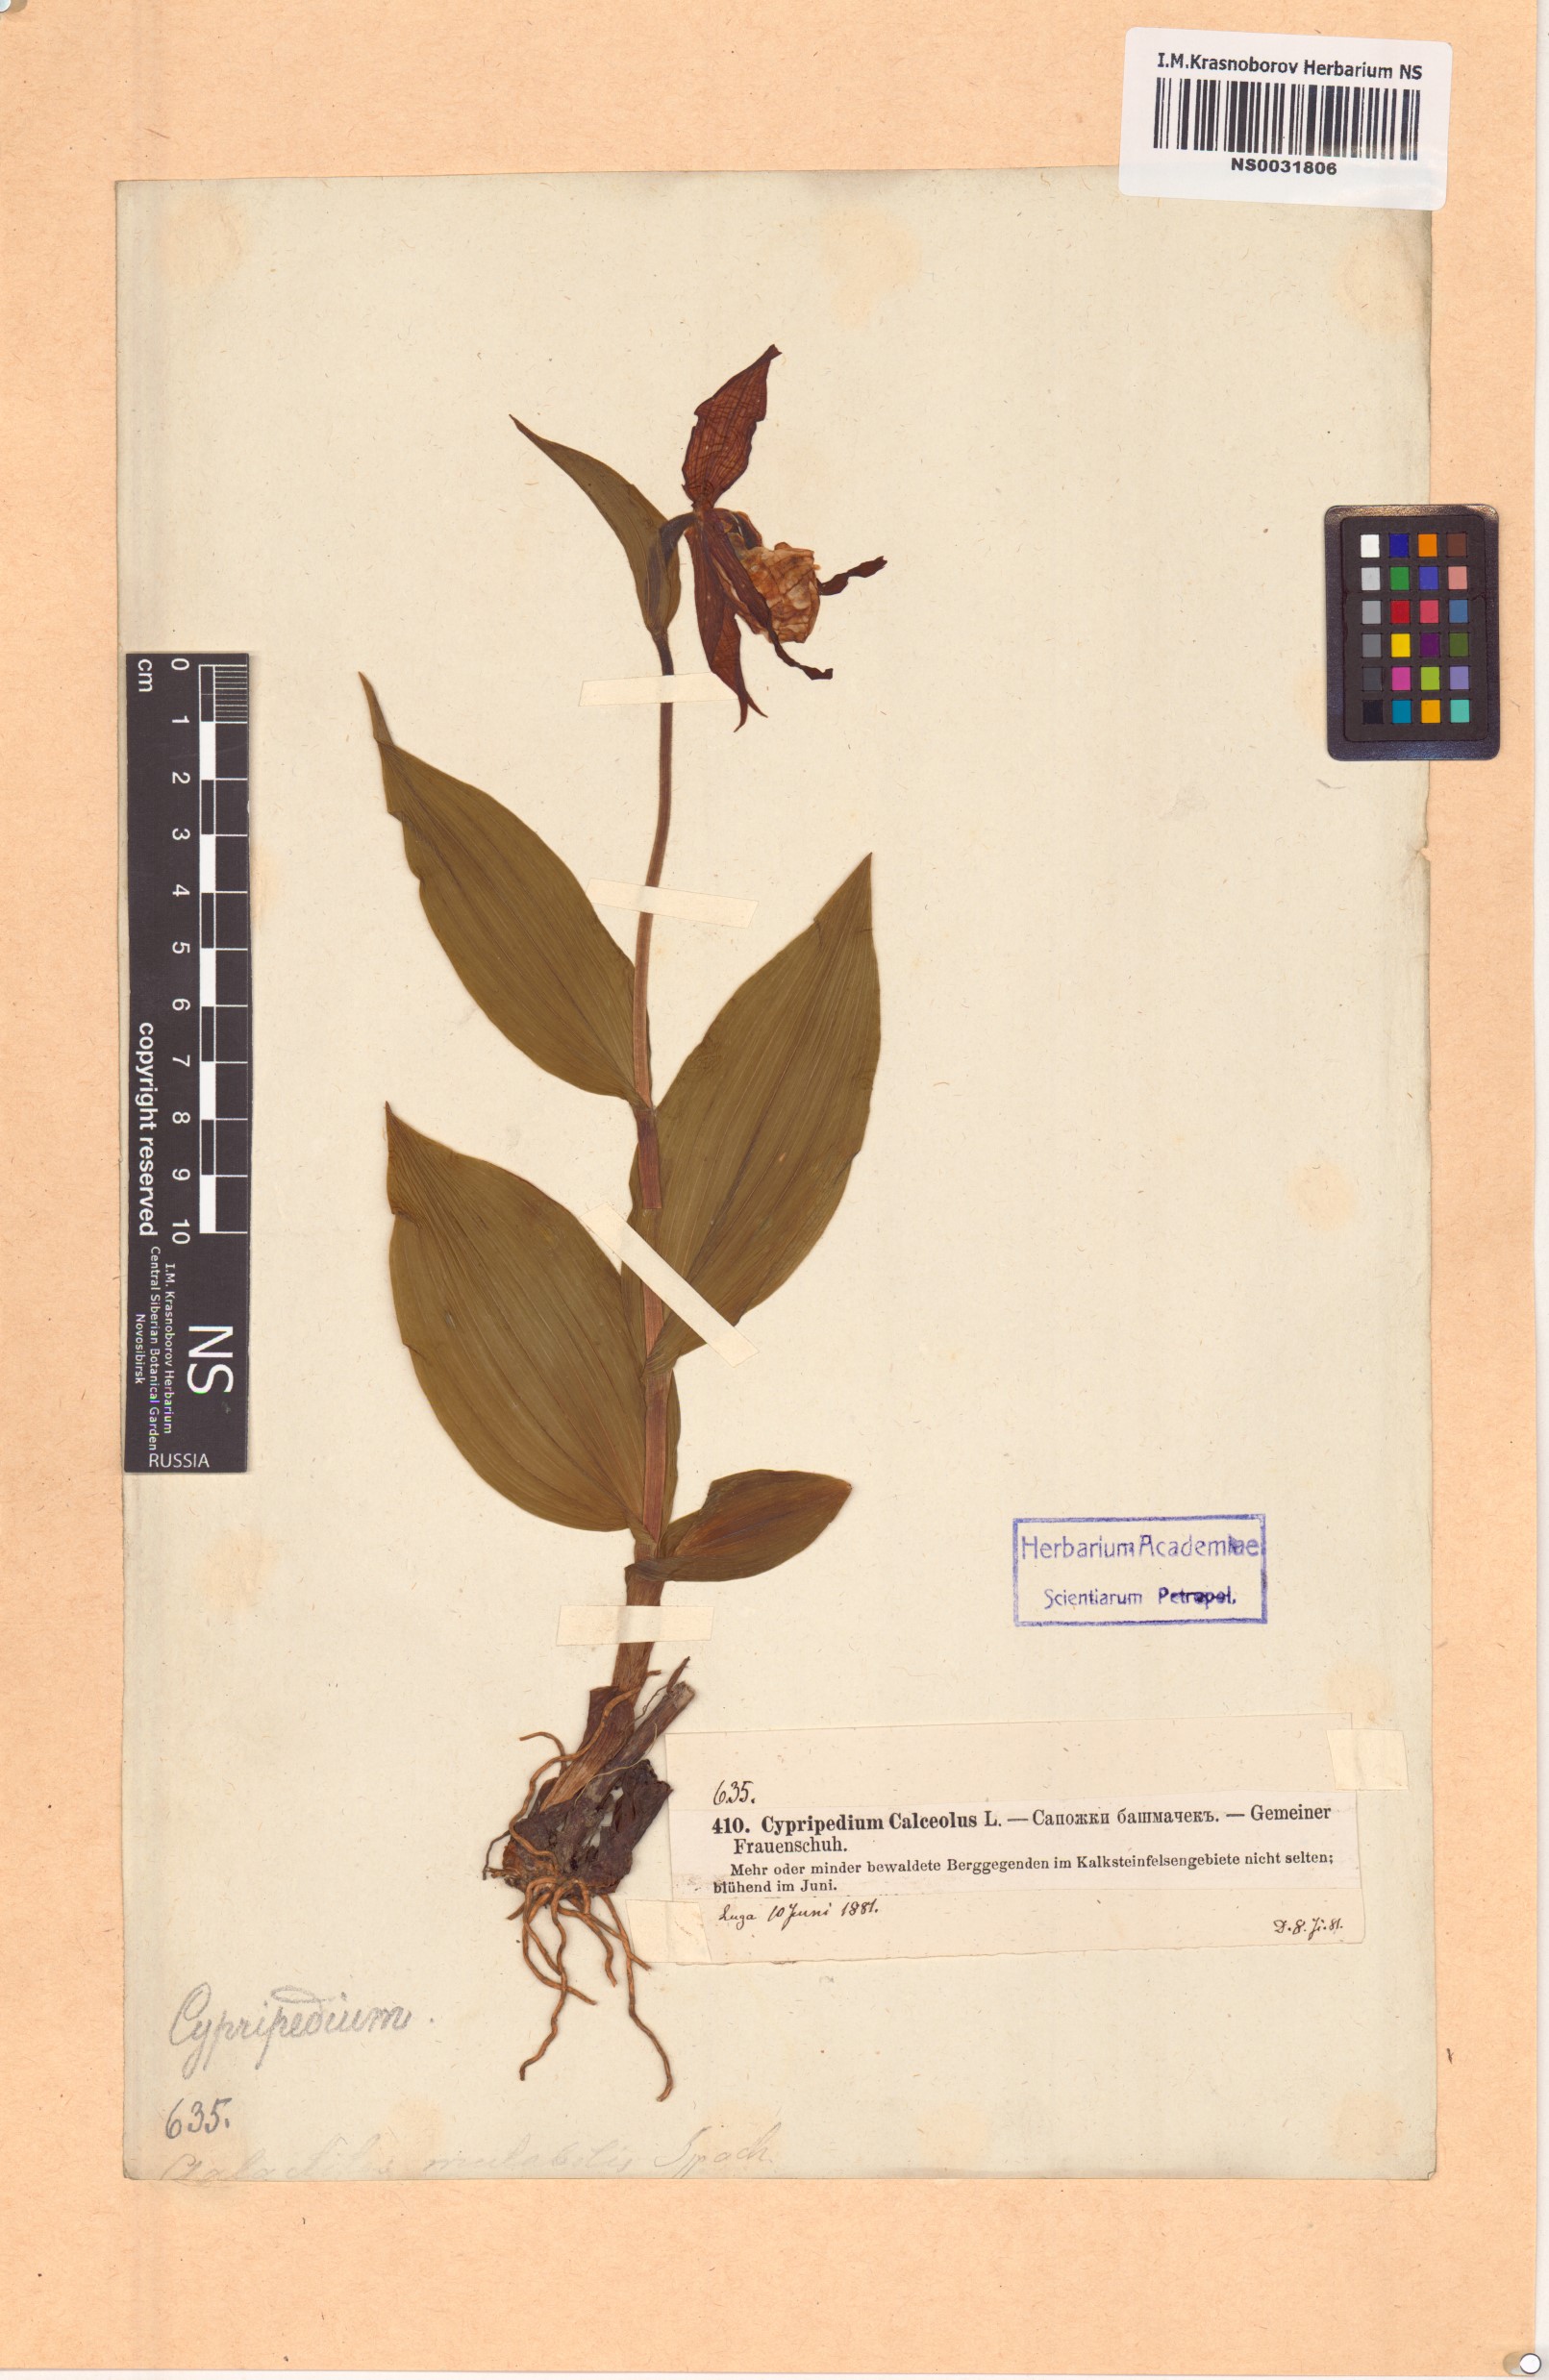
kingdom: Plantae
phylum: Tracheophyta
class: Liliopsida
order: Asparagales
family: Orchidaceae
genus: Cypripedium
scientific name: Cypripedium calceolus
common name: Lady's-slipper
